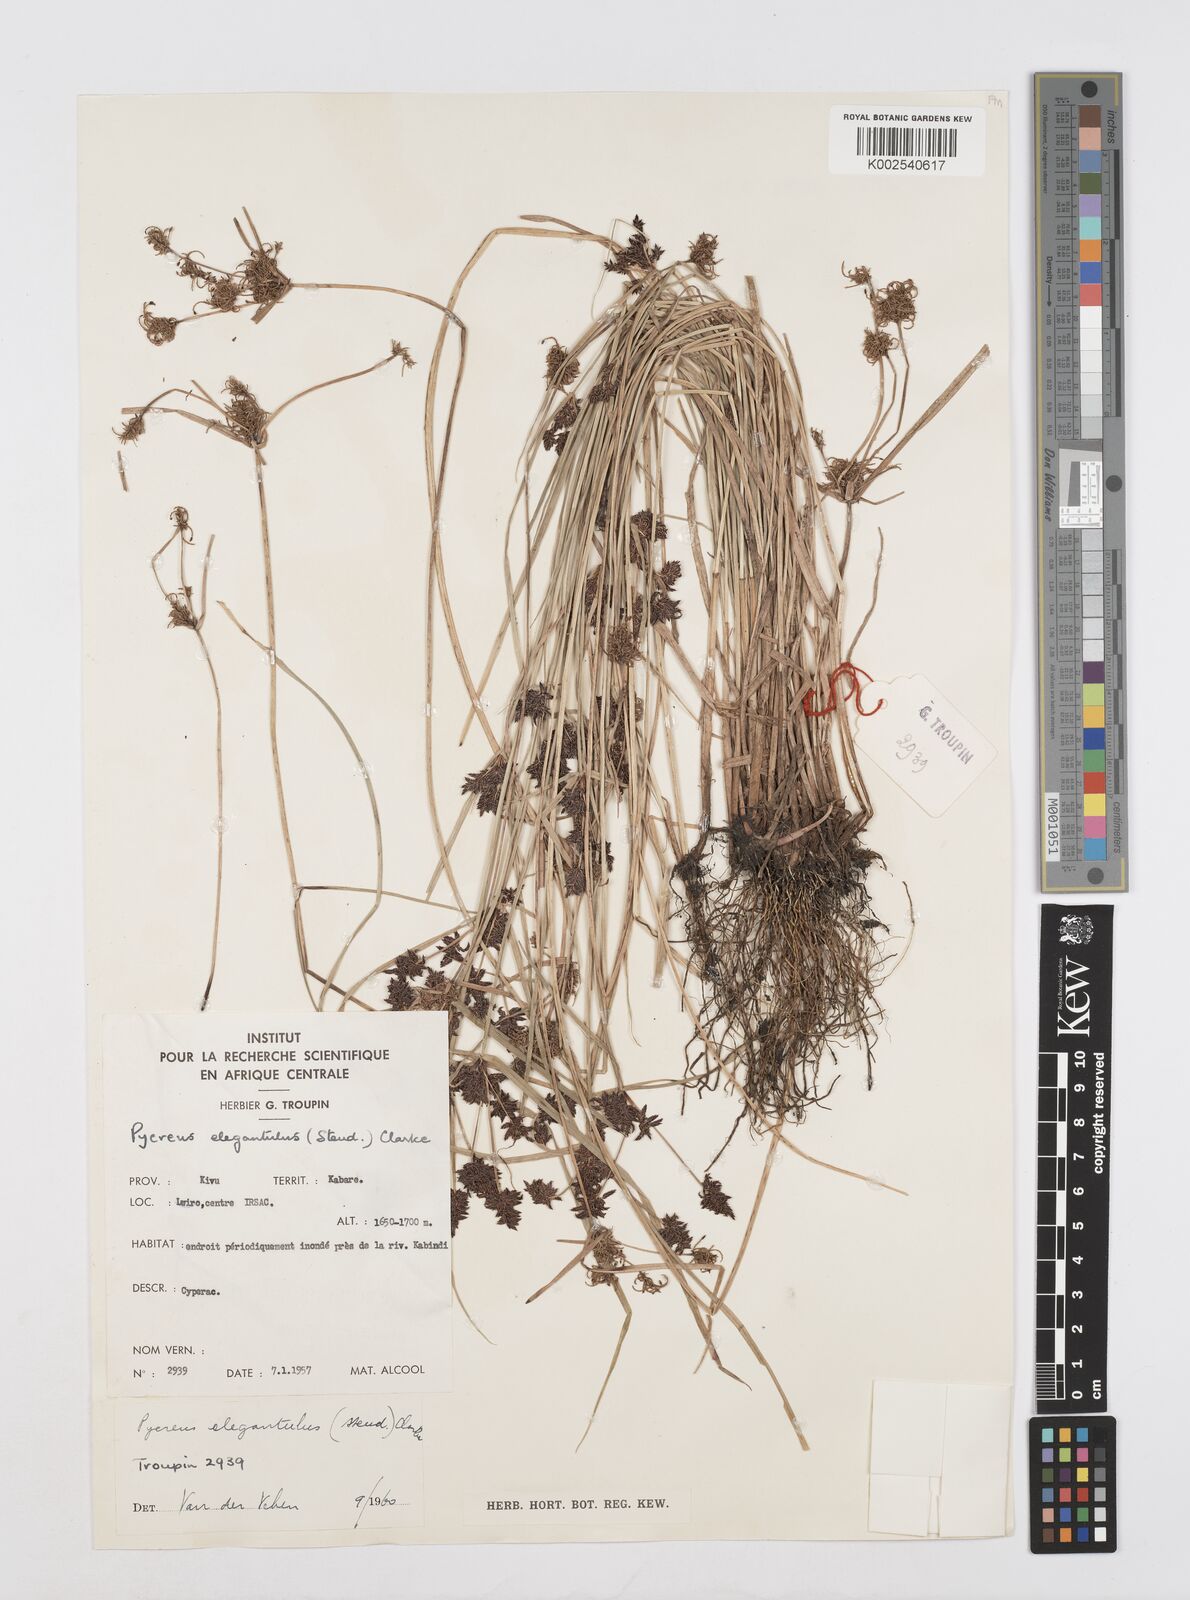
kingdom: Plantae
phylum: Tracheophyta
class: Liliopsida
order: Poales
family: Cyperaceae
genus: Cyperus
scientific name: Cyperus elegantulus
